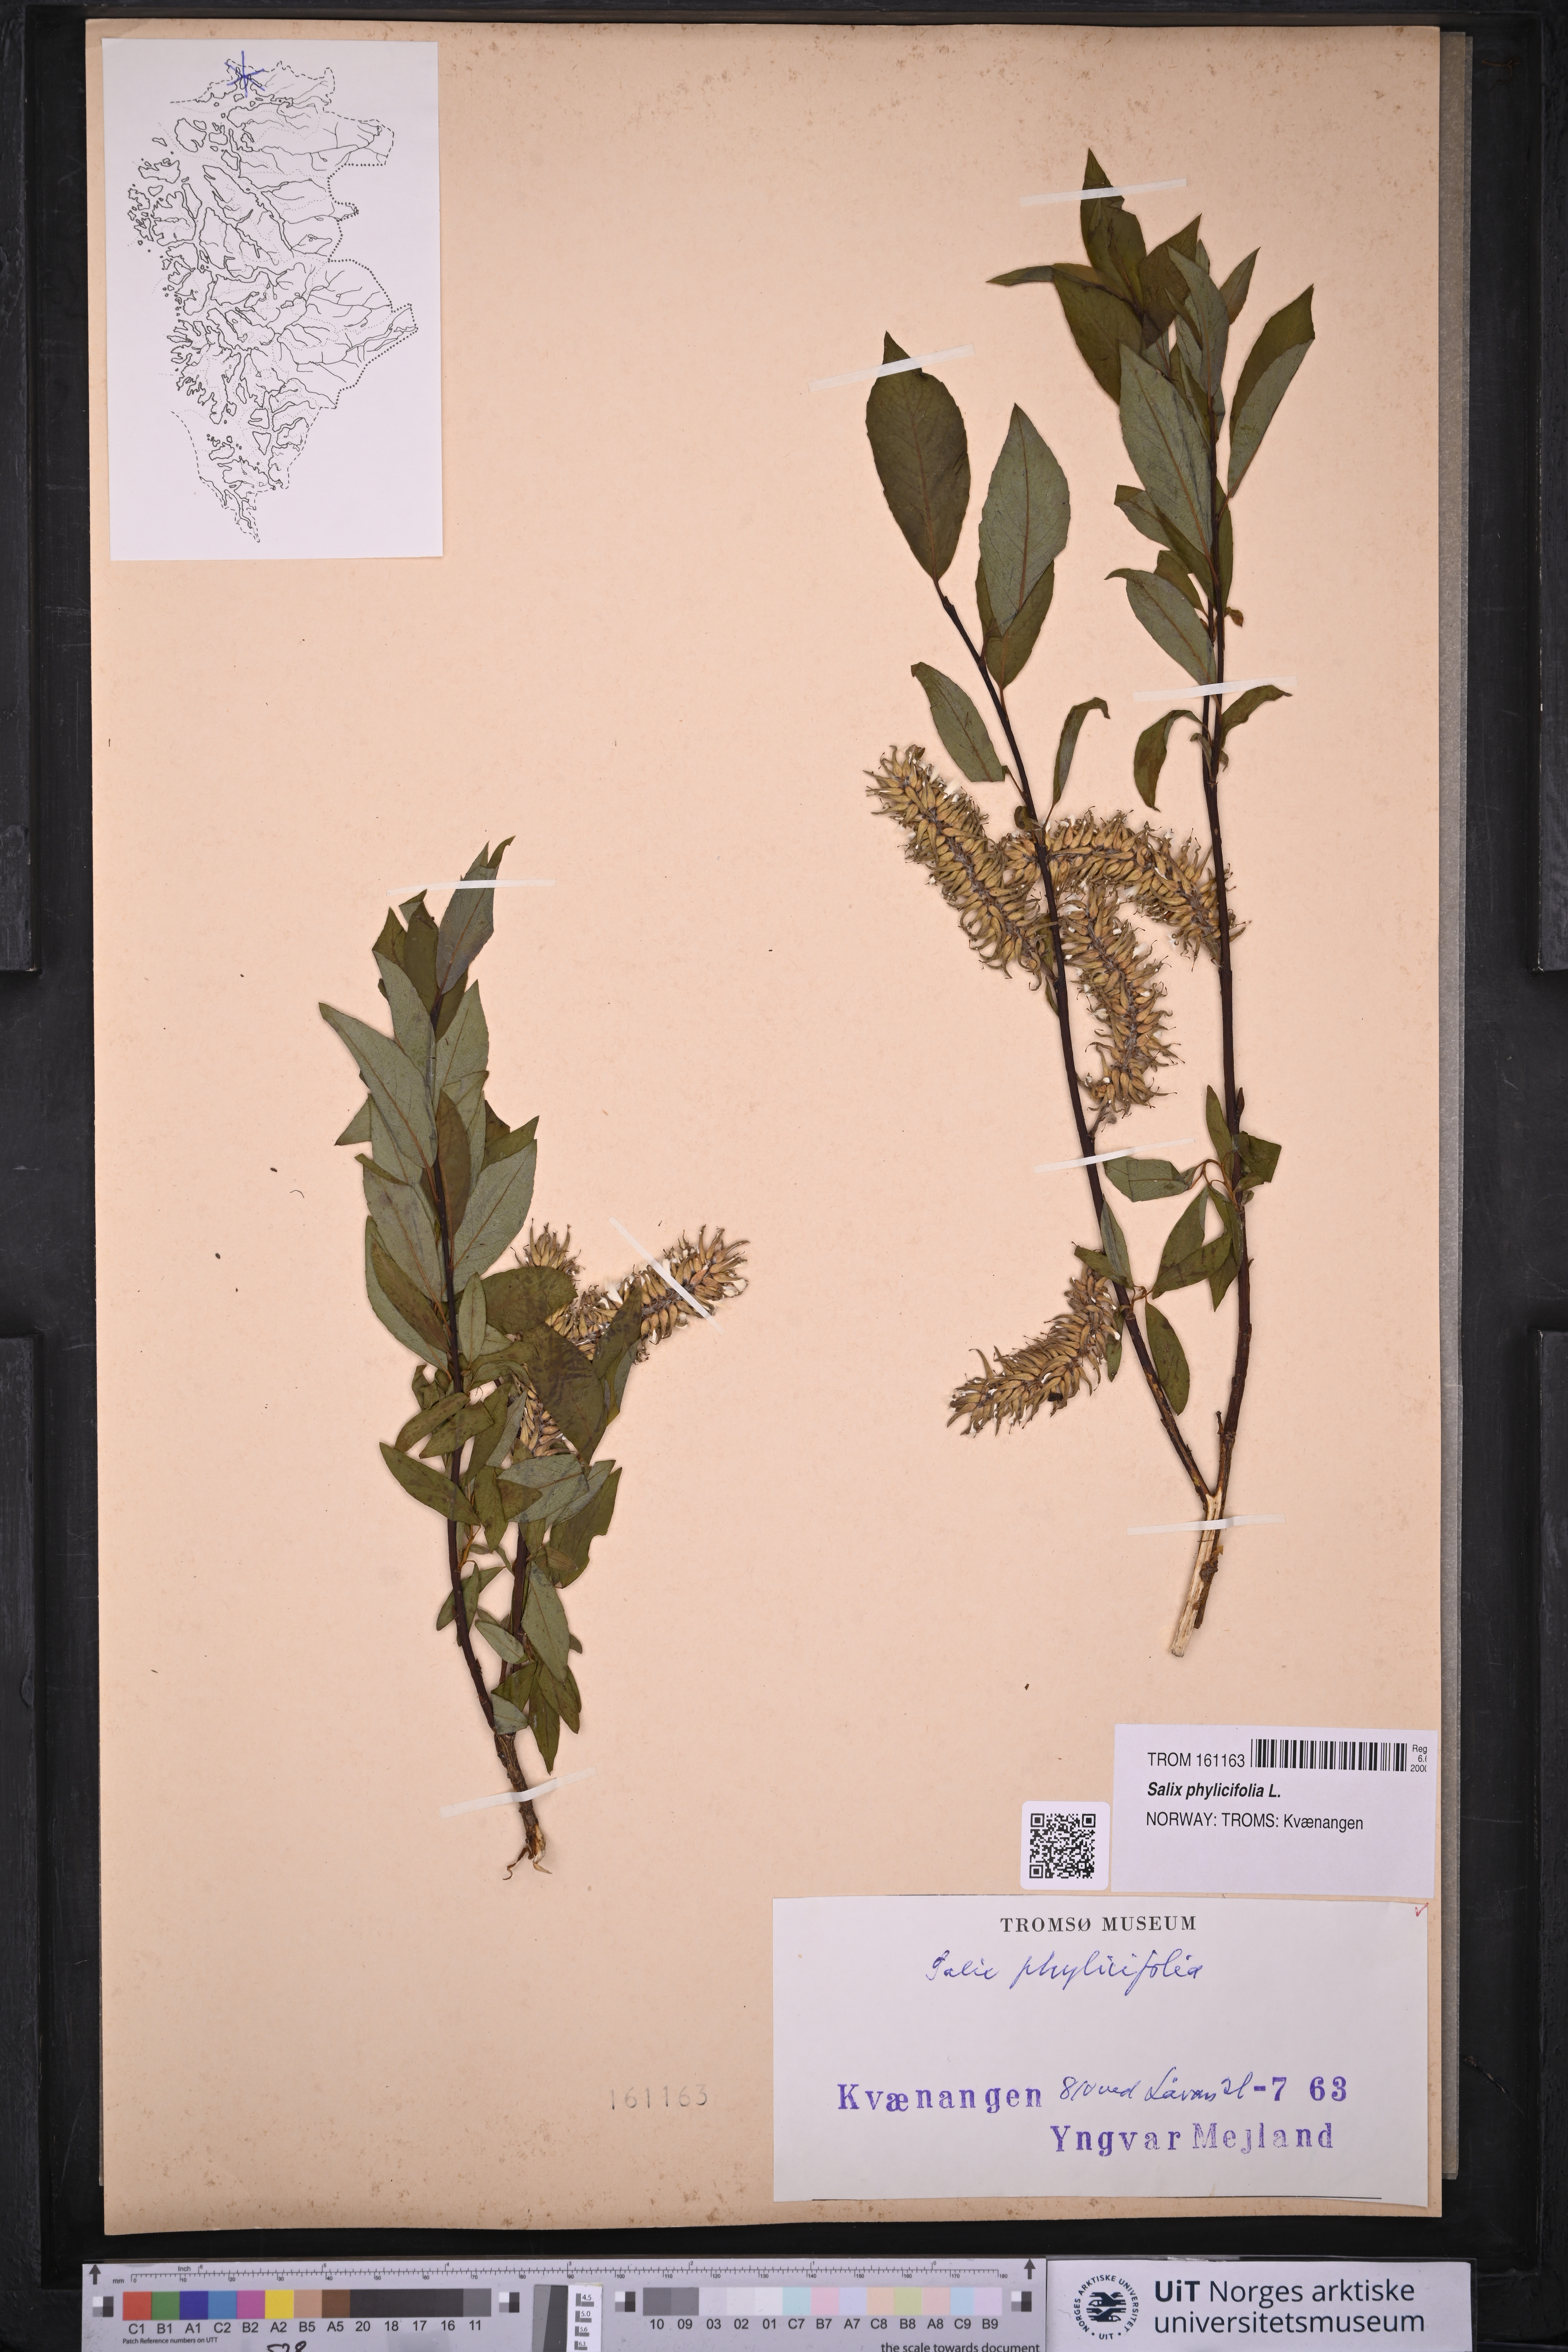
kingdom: Plantae
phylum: Tracheophyta
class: Magnoliopsida
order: Malpighiales
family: Salicaceae
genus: Salix
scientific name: Salix phylicifolia
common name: Tea-leaved willow
